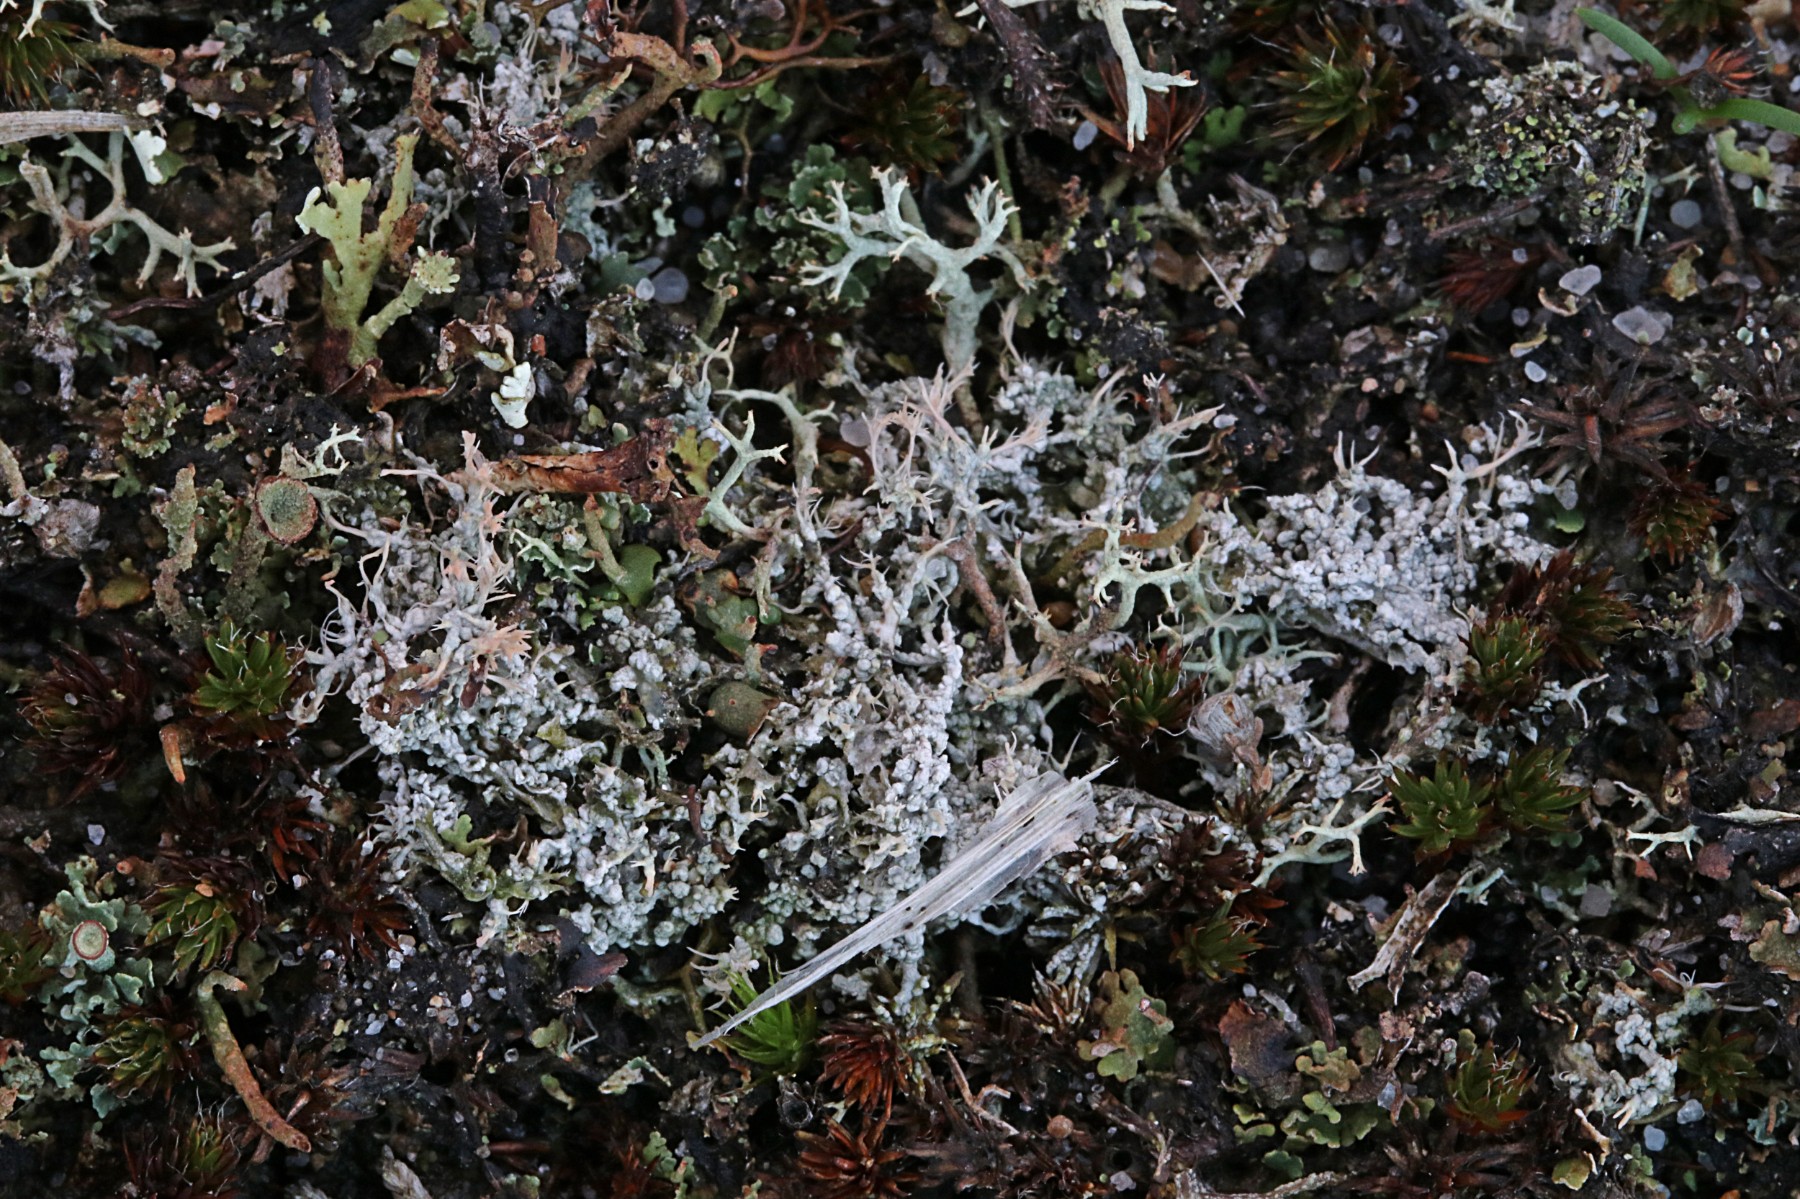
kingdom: Fungi
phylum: Ascomycota
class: Lecanoromycetes
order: Pertusariales
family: Ochrolechiaceae
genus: Ochrolechia
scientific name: Ochrolechia frigida
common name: fjeld-blegskivelav
